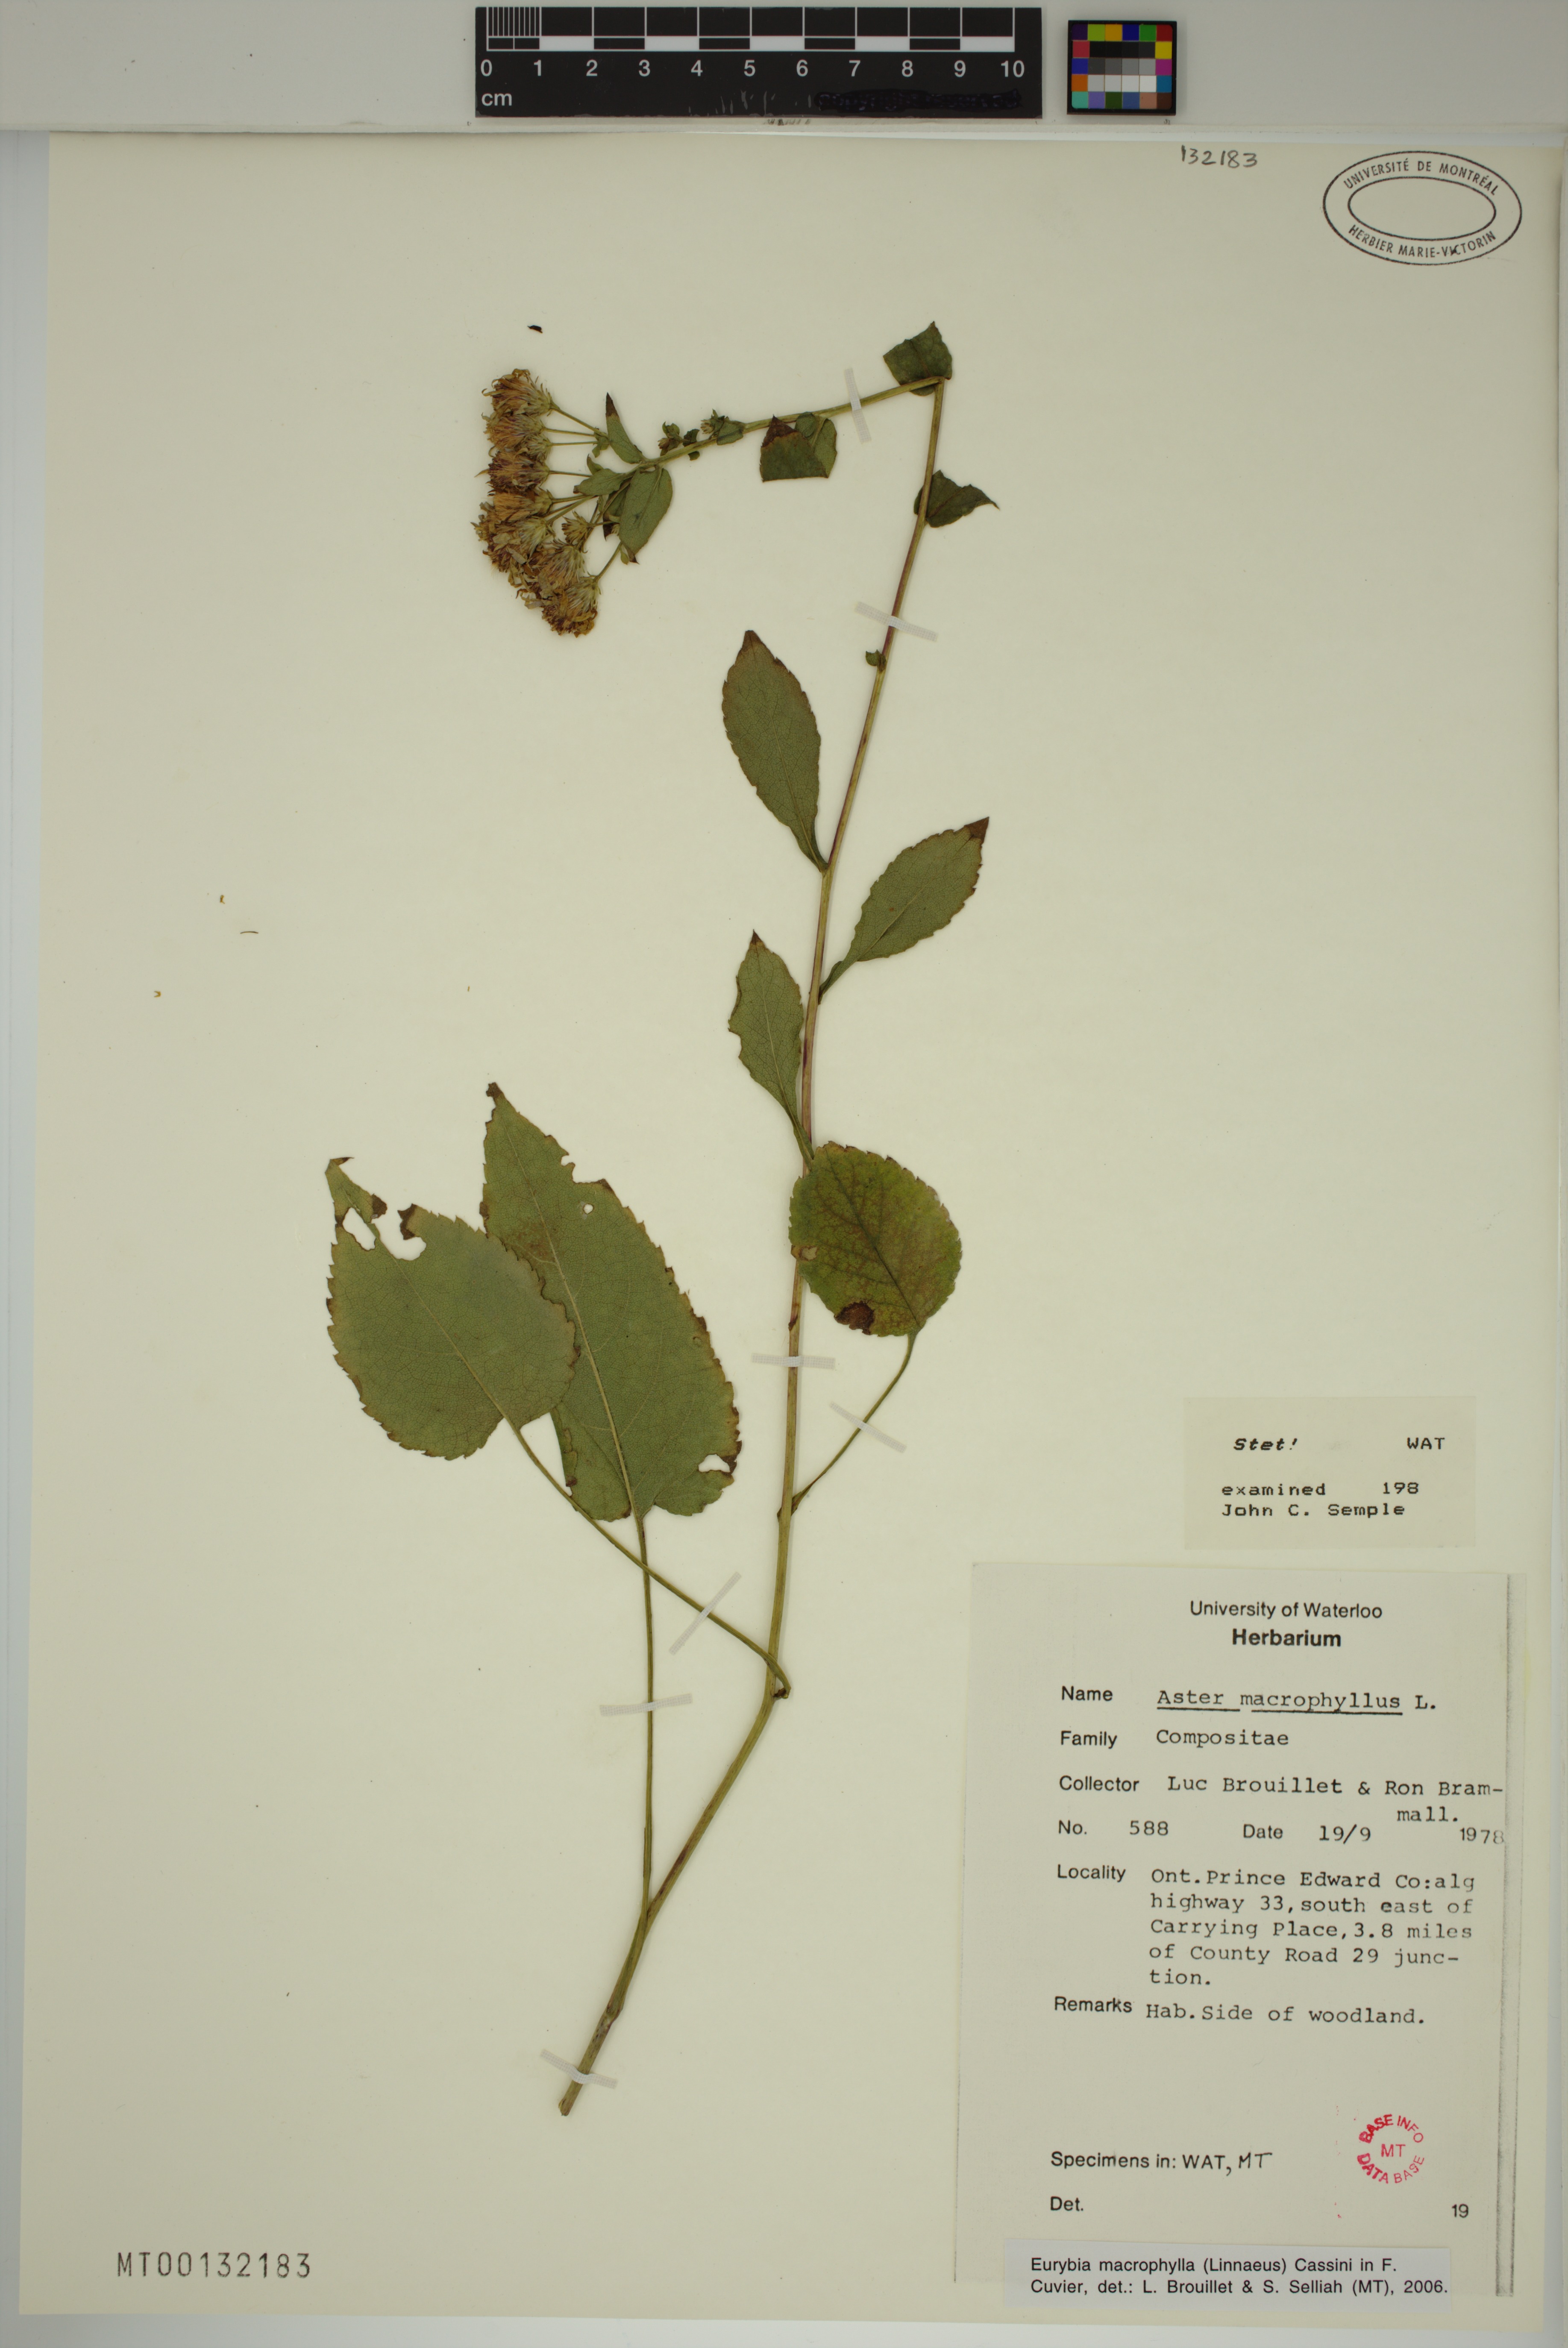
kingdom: Plantae
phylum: Tracheophyta
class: Magnoliopsida
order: Asterales
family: Asteraceae
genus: Eurybia
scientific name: Eurybia macrophylla
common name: Big-leaved aster
